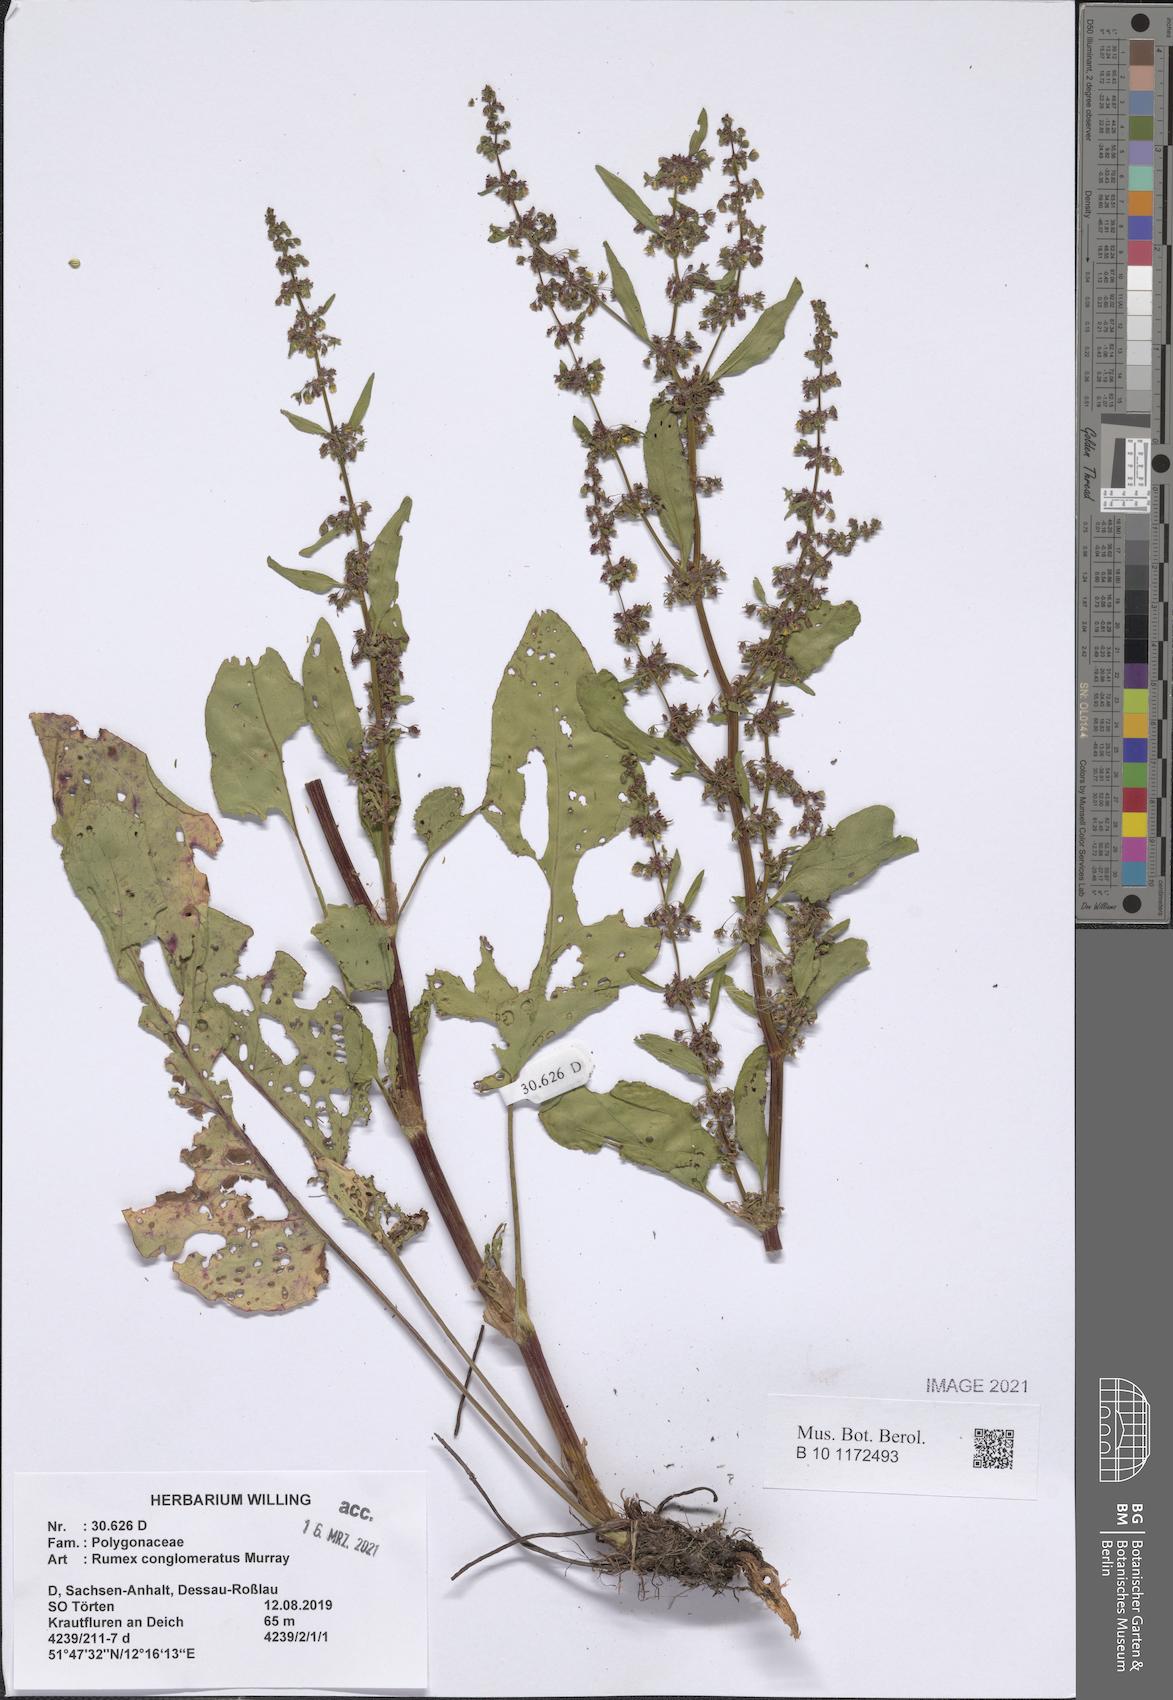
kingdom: Plantae
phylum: Tracheophyta
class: Magnoliopsida
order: Caryophyllales
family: Polygonaceae
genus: Rumex
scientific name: Rumex conglomeratus
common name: Clustered dock
